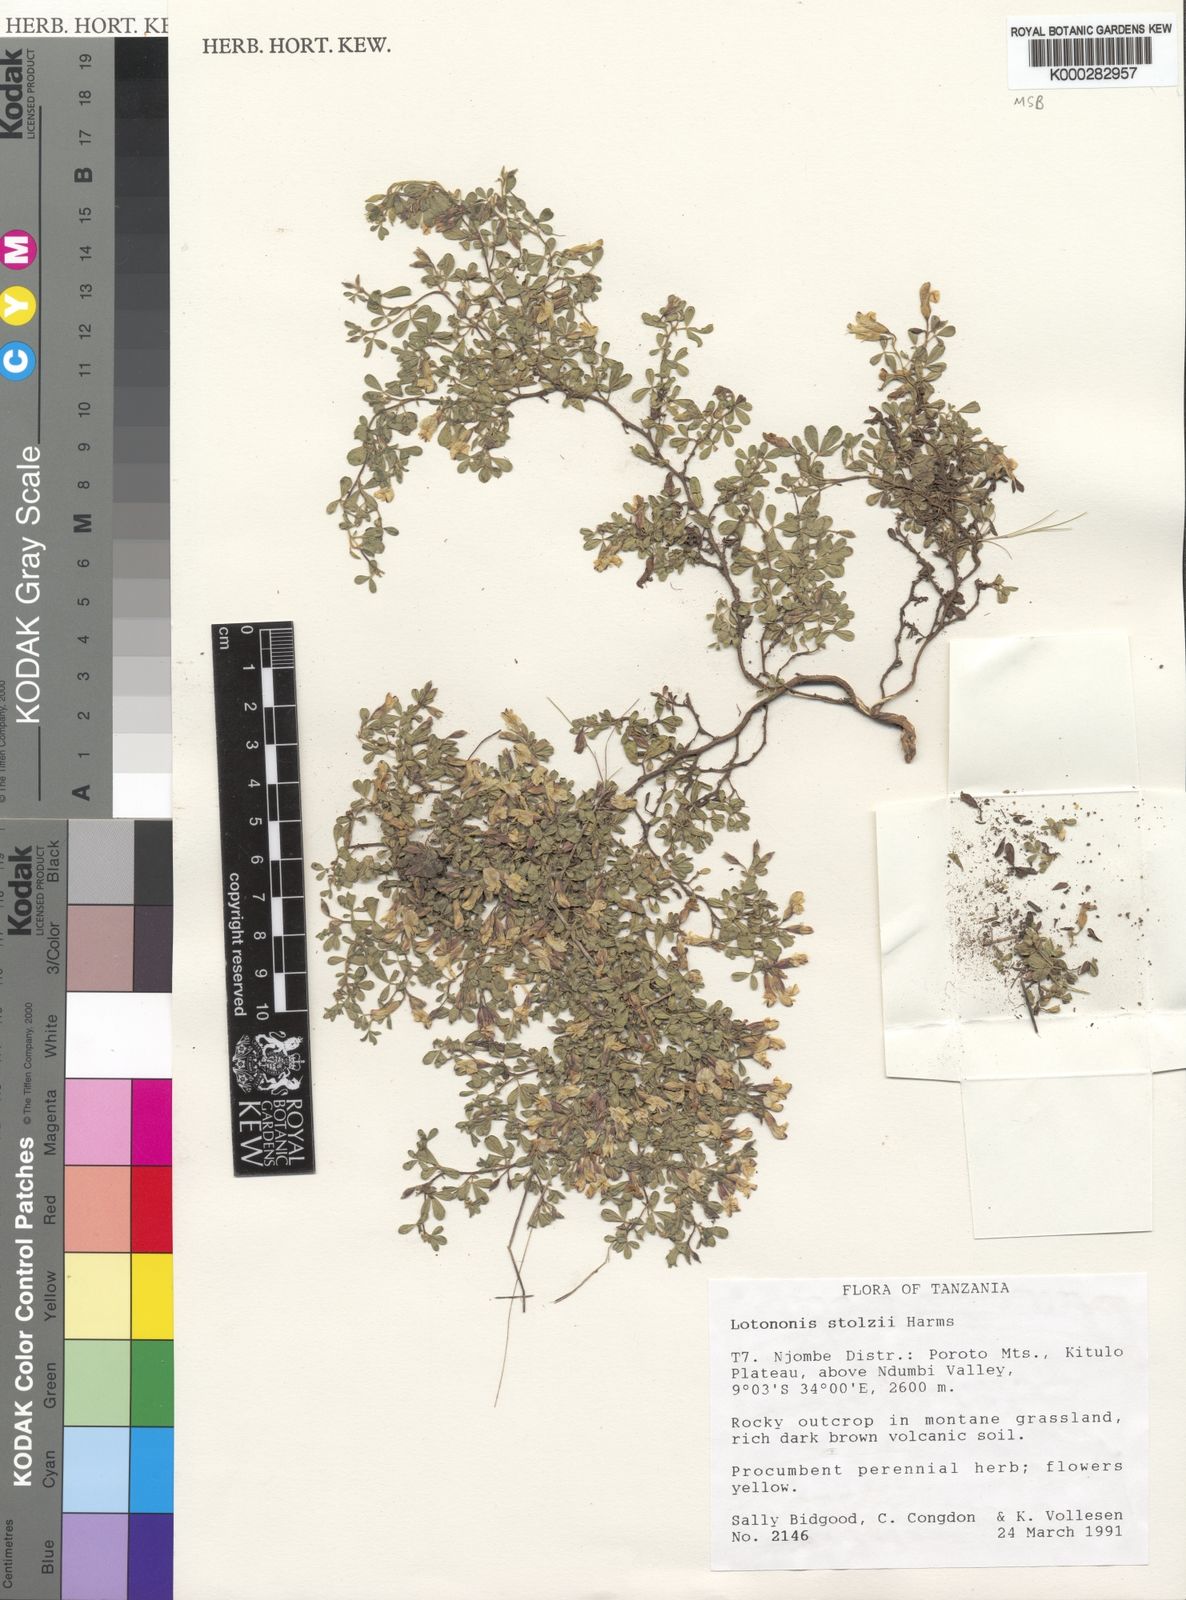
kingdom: Plantae
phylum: Tracheophyta
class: Magnoliopsida
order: Fabales
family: Fabaceae
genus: Leobordea
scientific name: Leobordea stolzii
